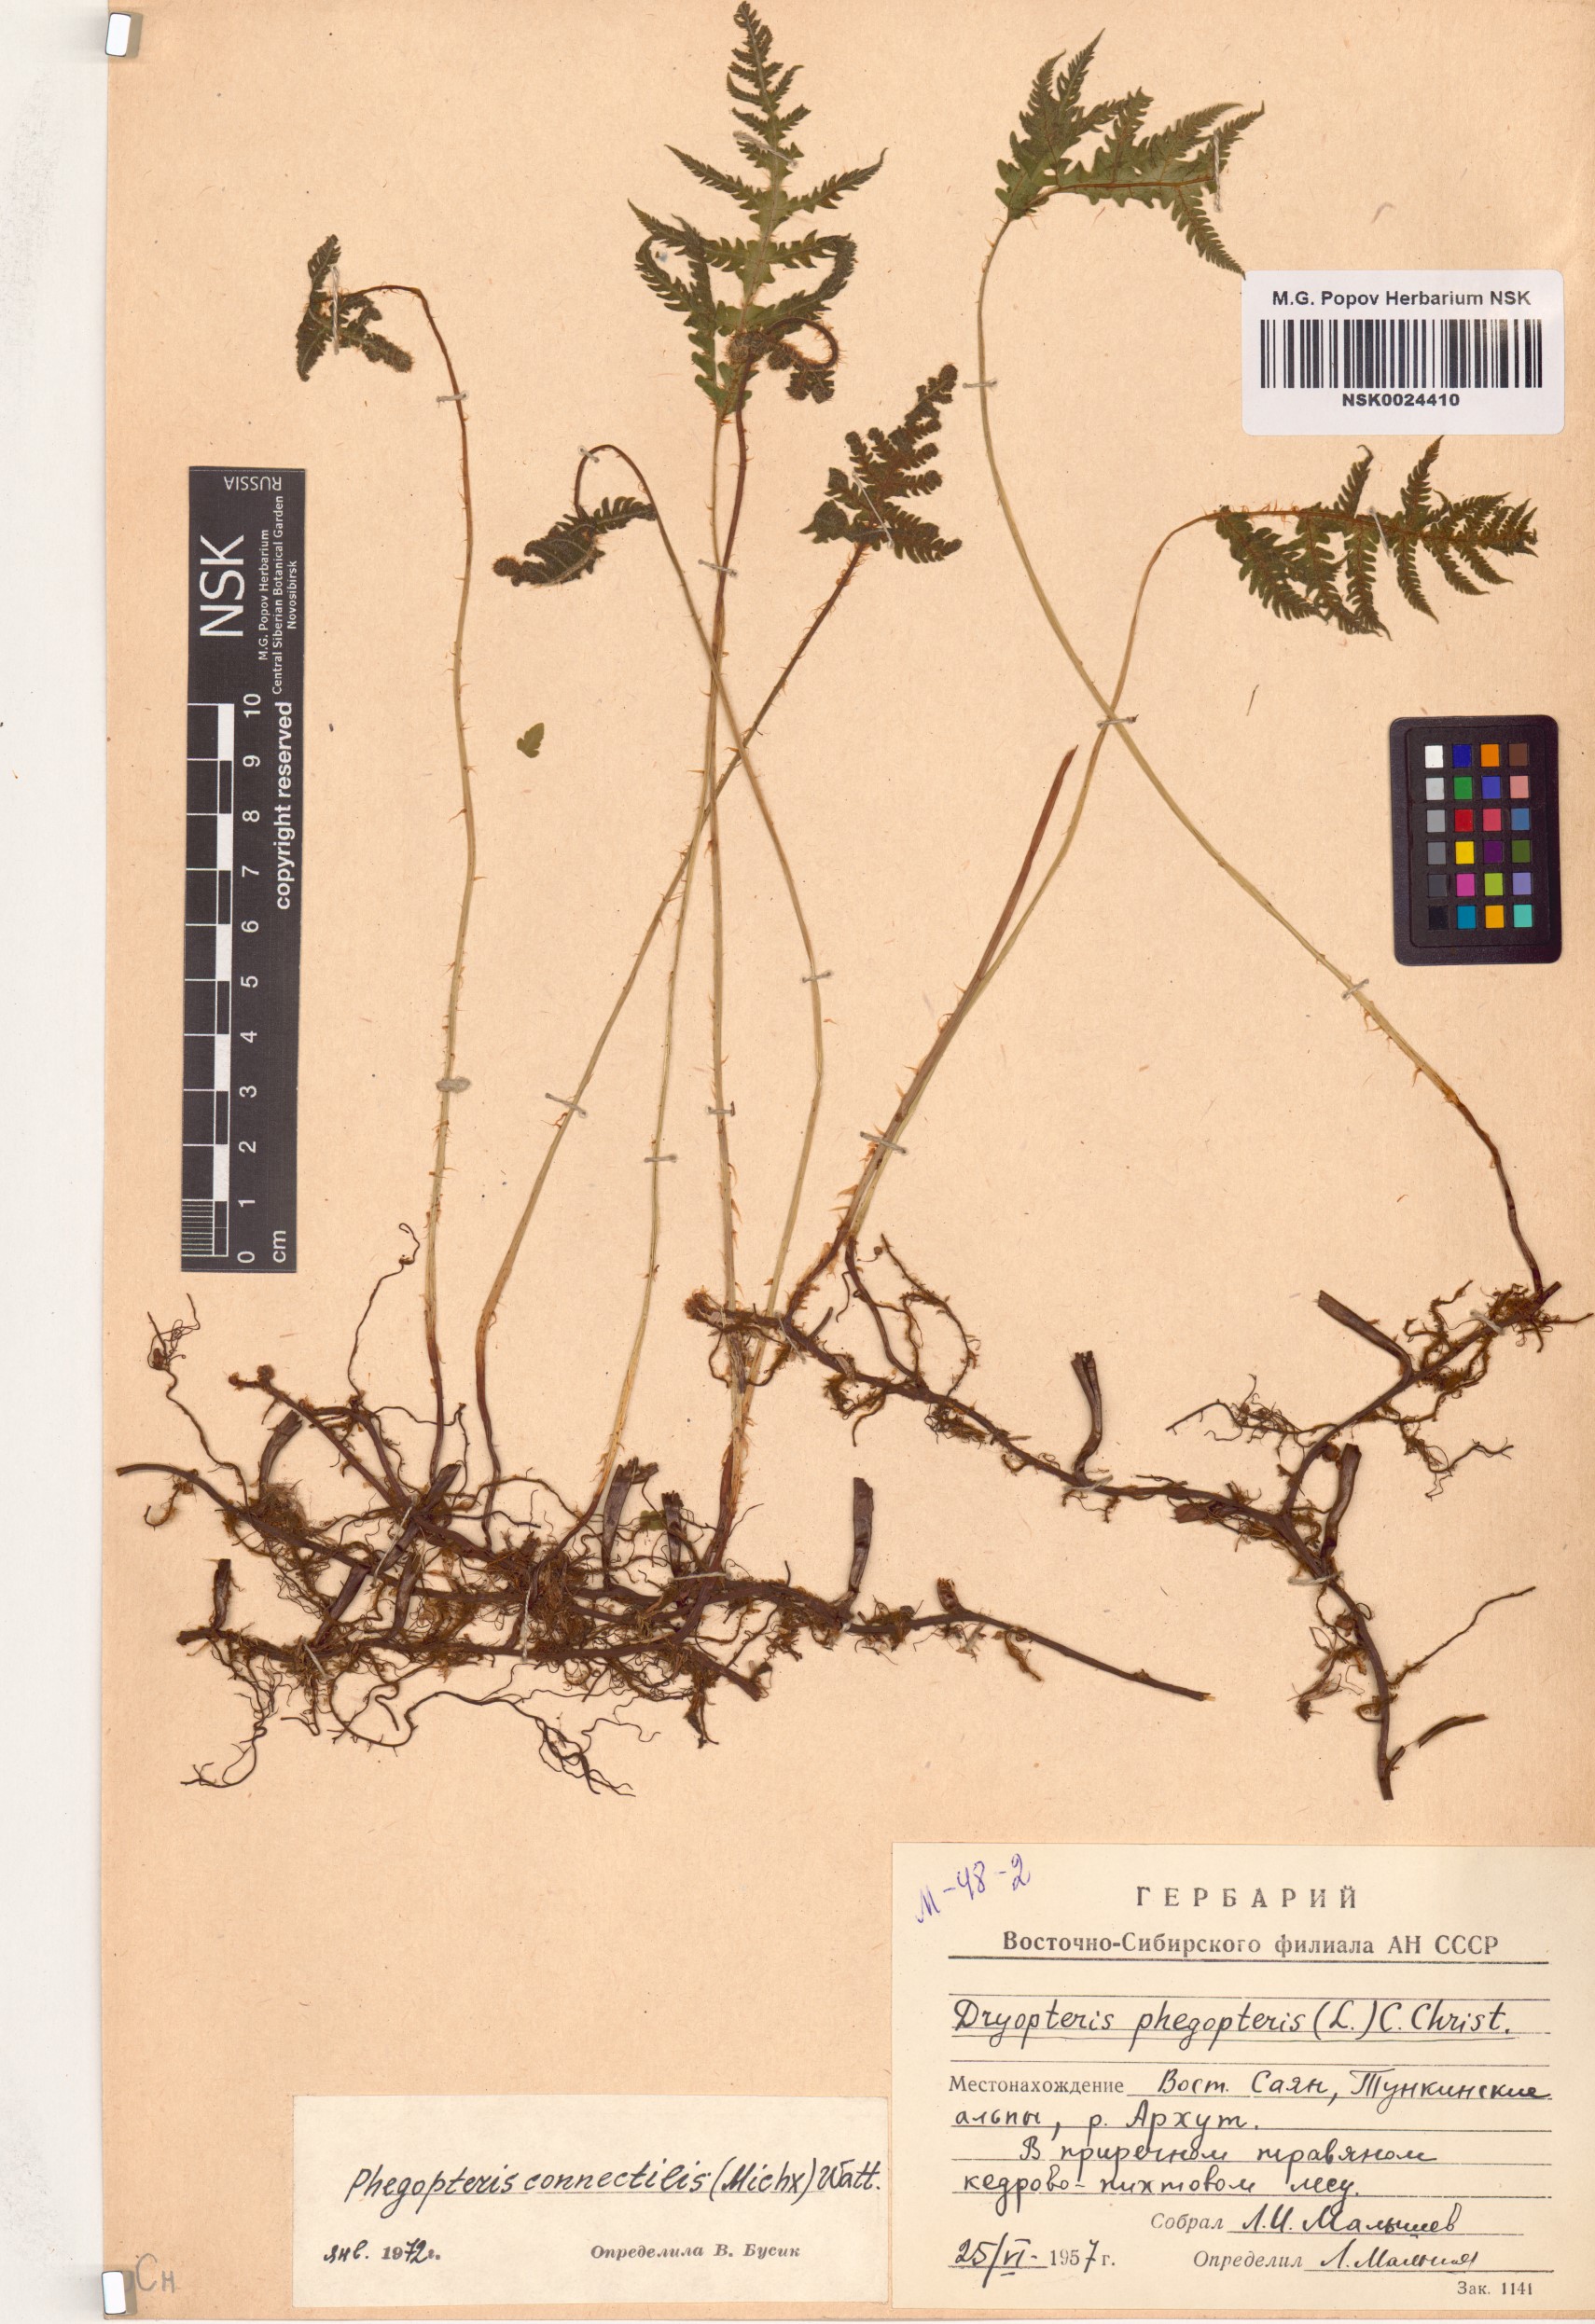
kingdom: Plantae
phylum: Tracheophyta
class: Polypodiopsida
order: Polypodiales
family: Thelypteridaceae
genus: Phegopteris
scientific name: Phegopteris connectilis
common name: Beech fern
